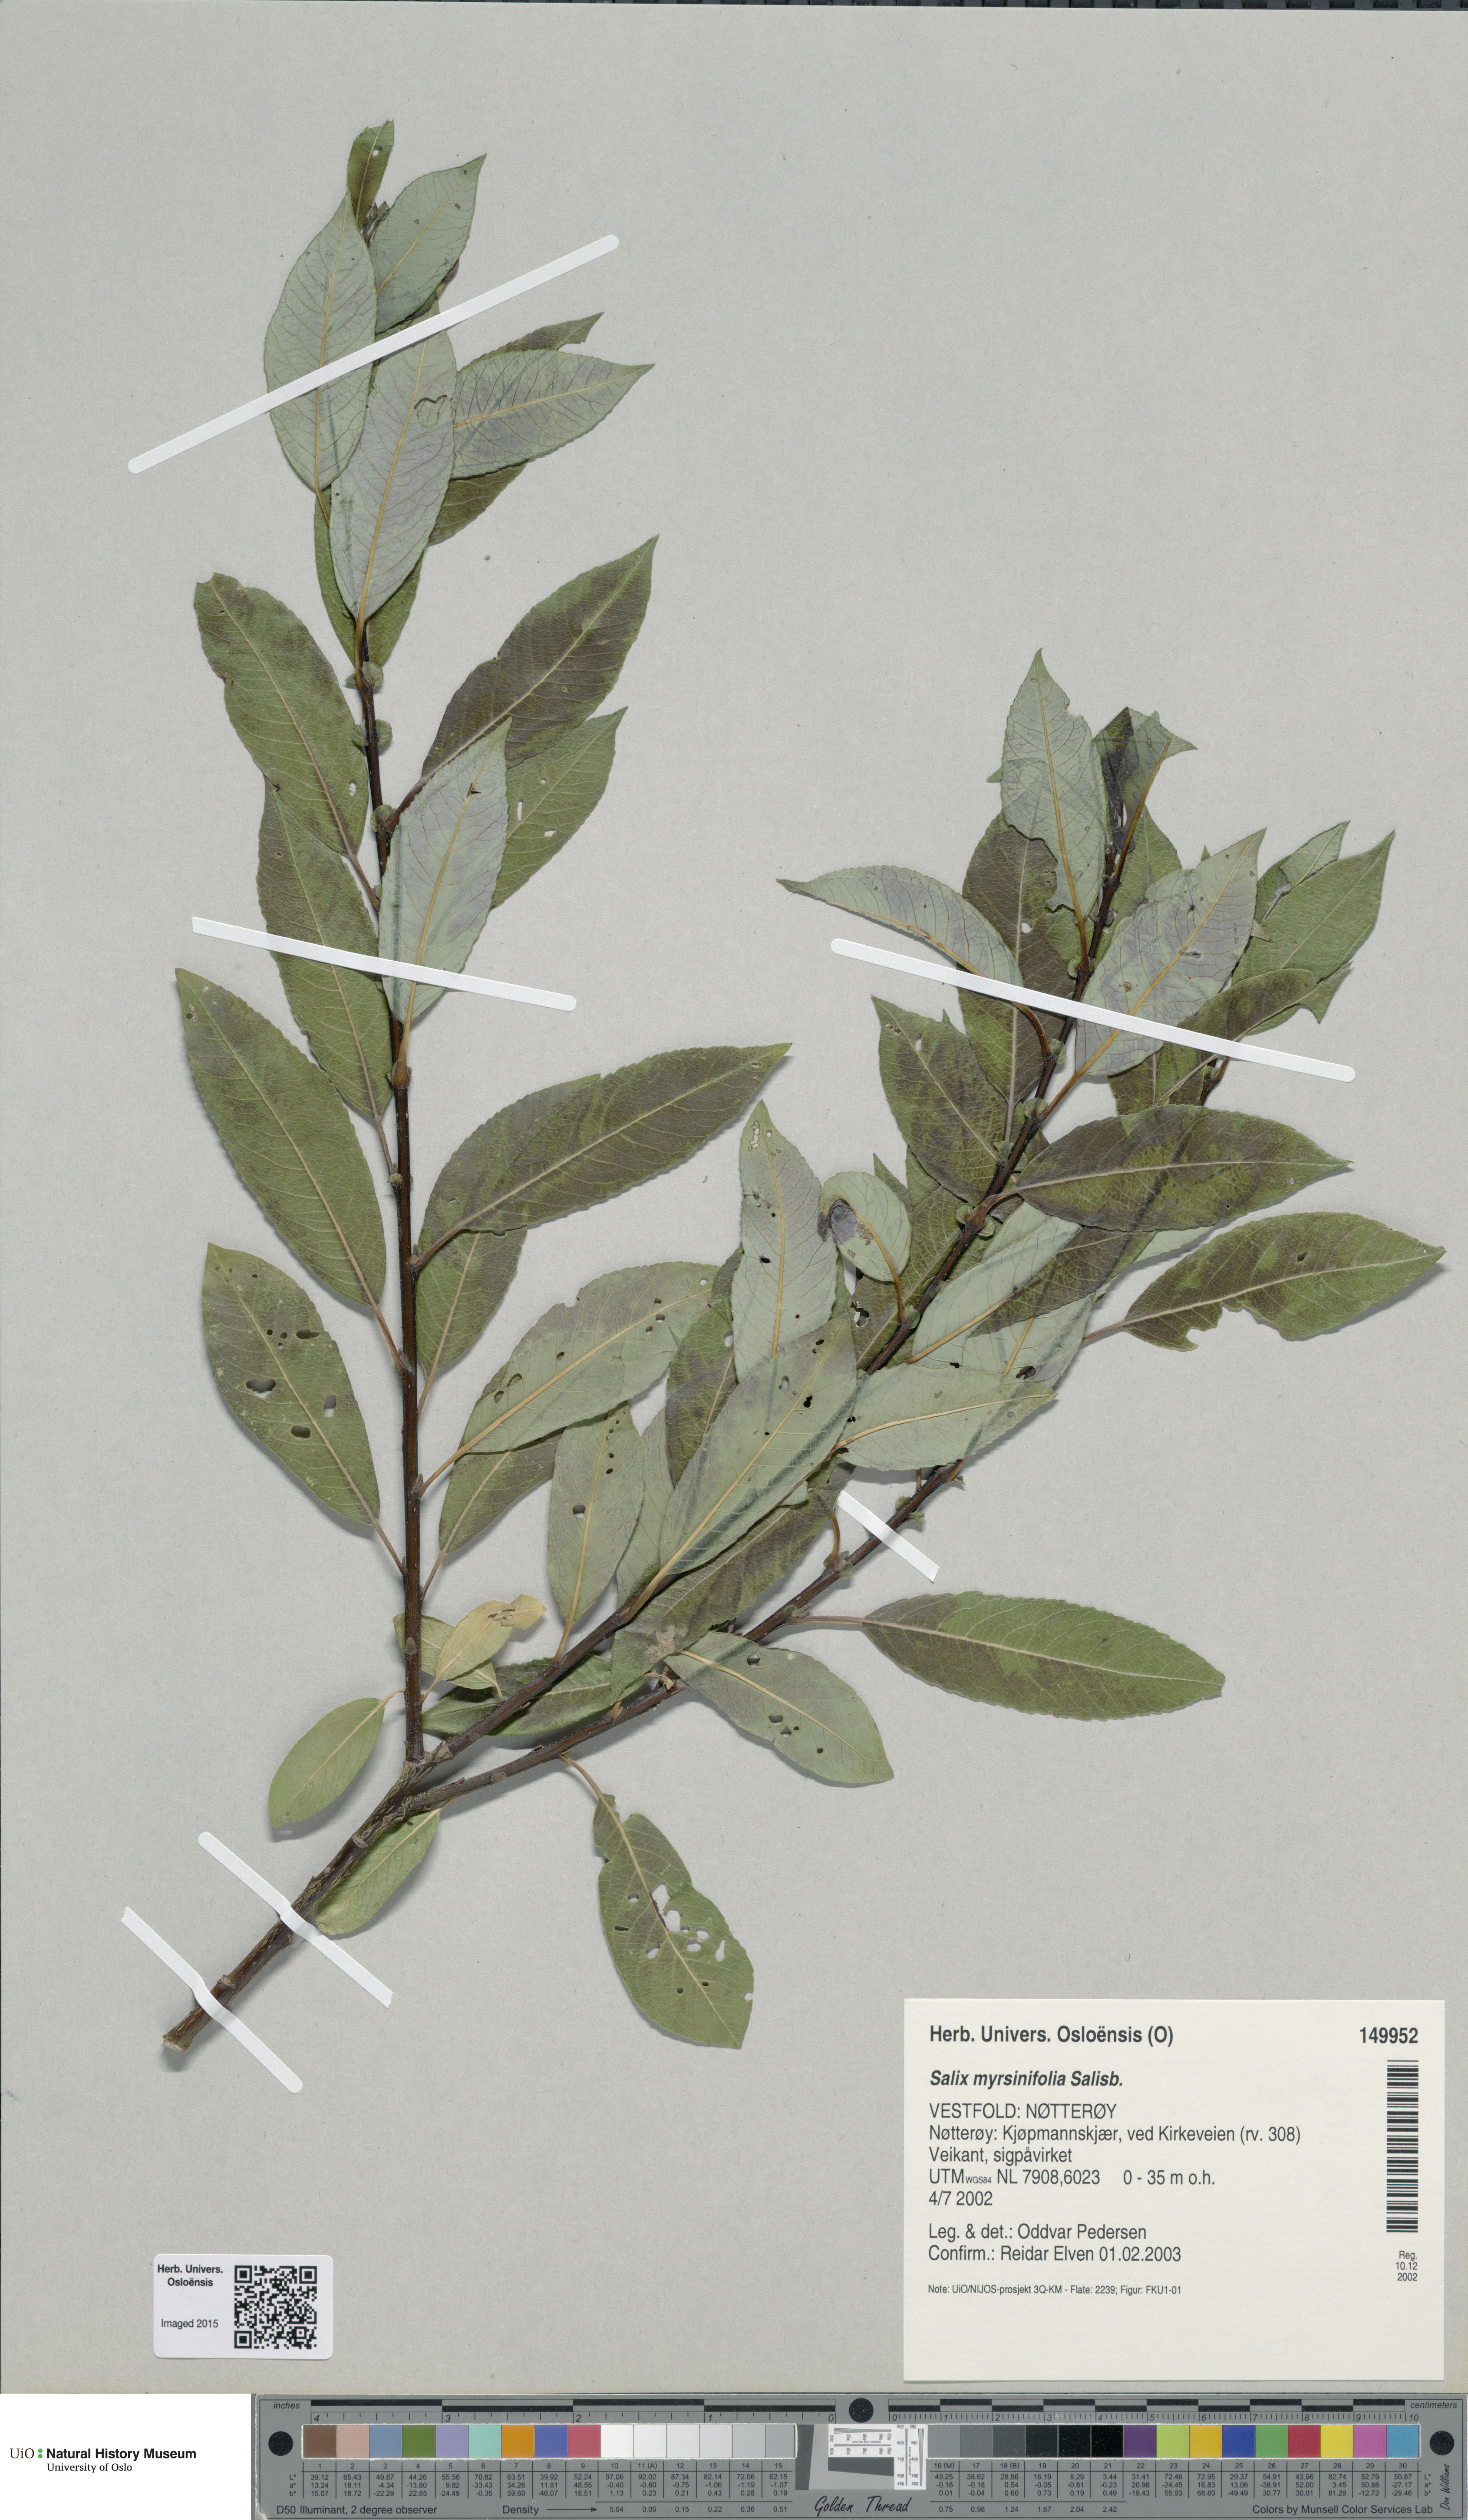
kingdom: Plantae
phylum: Tracheophyta
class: Magnoliopsida
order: Malpighiales
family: Salicaceae
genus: Salix
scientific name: Salix myrsinifolia
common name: Dark-leaved willow
